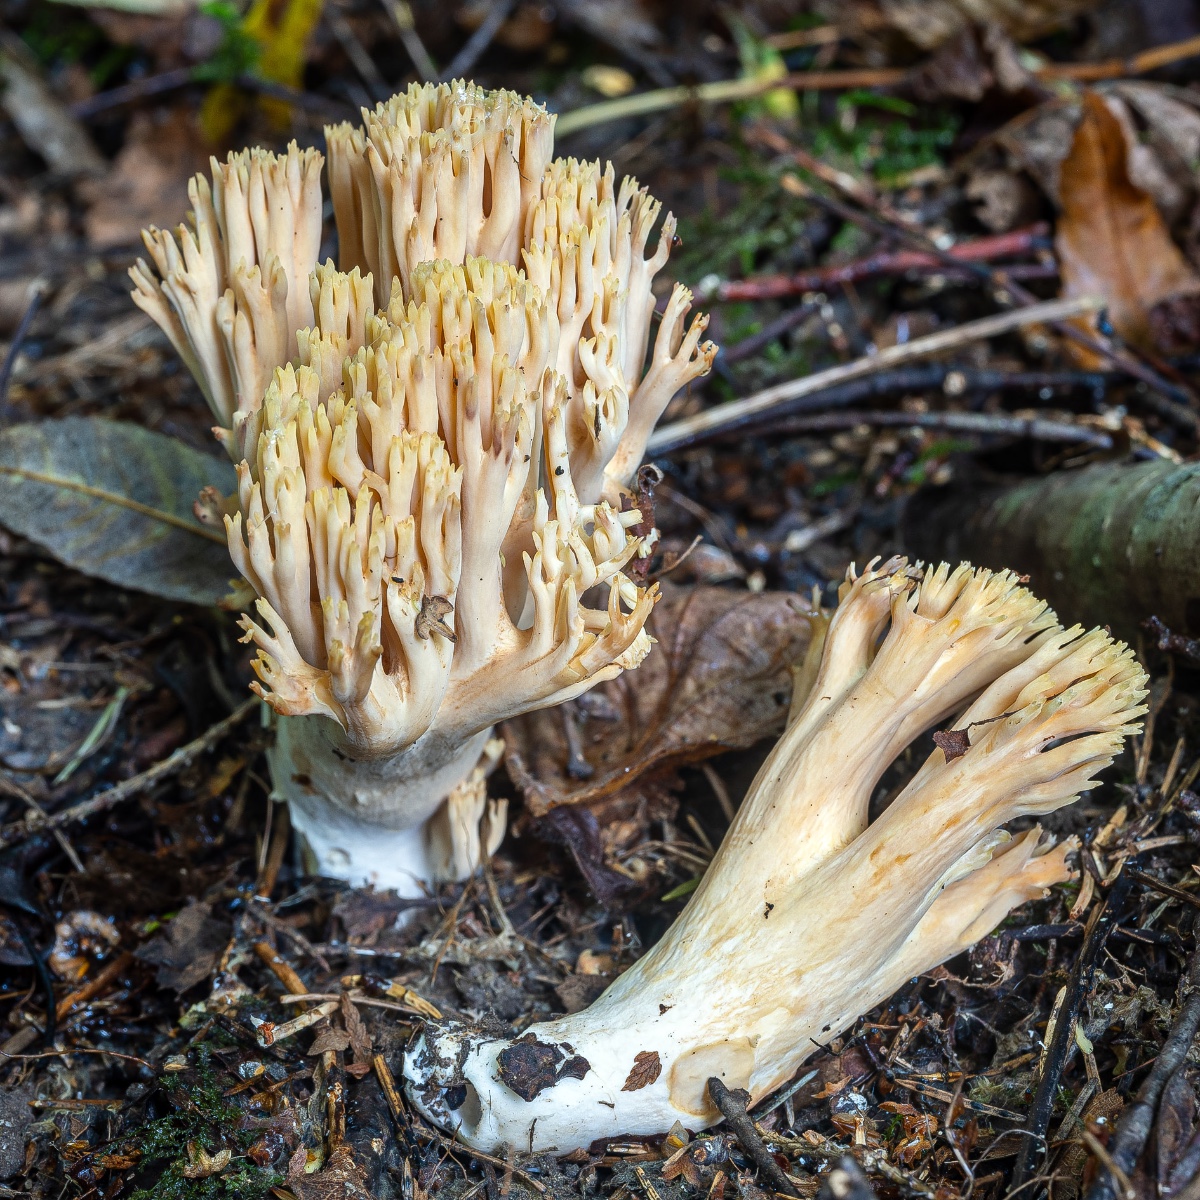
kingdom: Fungi
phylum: Basidiomycota
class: Agaricomycetes
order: Gomphales
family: Gomphaceae
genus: Ramaria
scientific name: Ramaria krieglsteineri
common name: smalsporet koralsvamp
